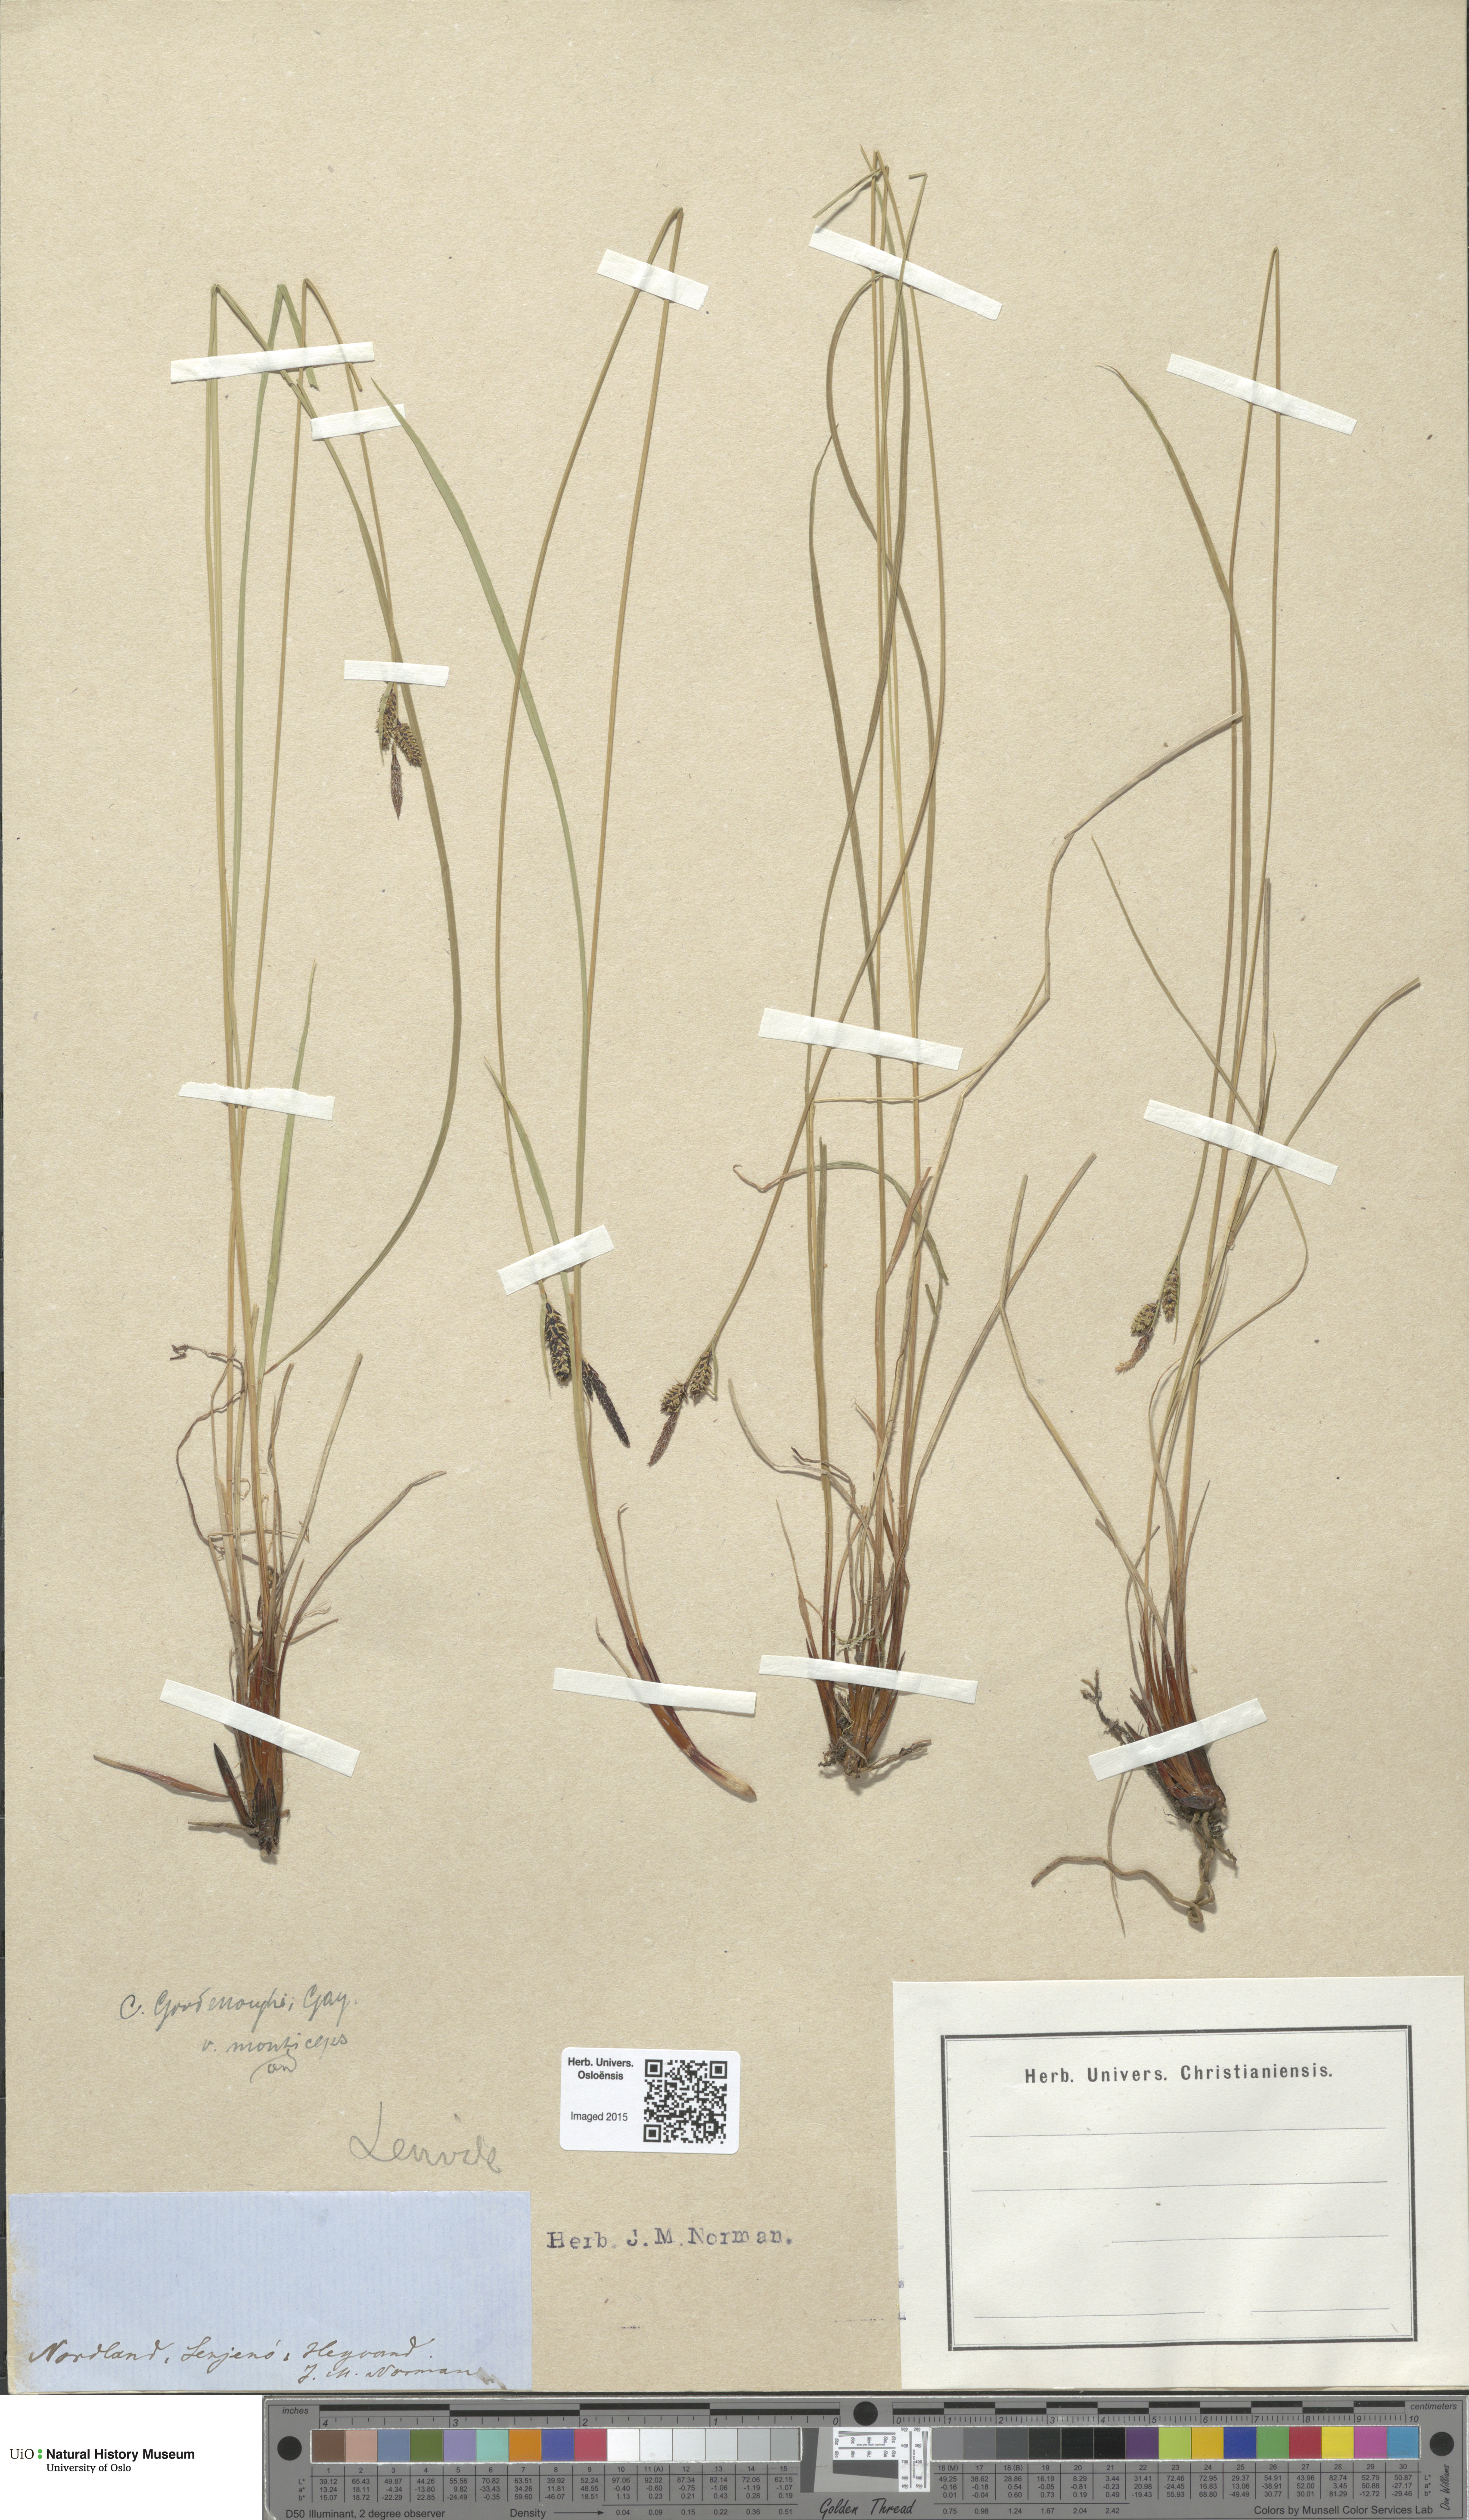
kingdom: Plantae
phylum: Tracheophyta
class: Liliopsida
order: Poales
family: Cyperaceae
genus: Carex
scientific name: Carex nigra
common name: Common sedge
